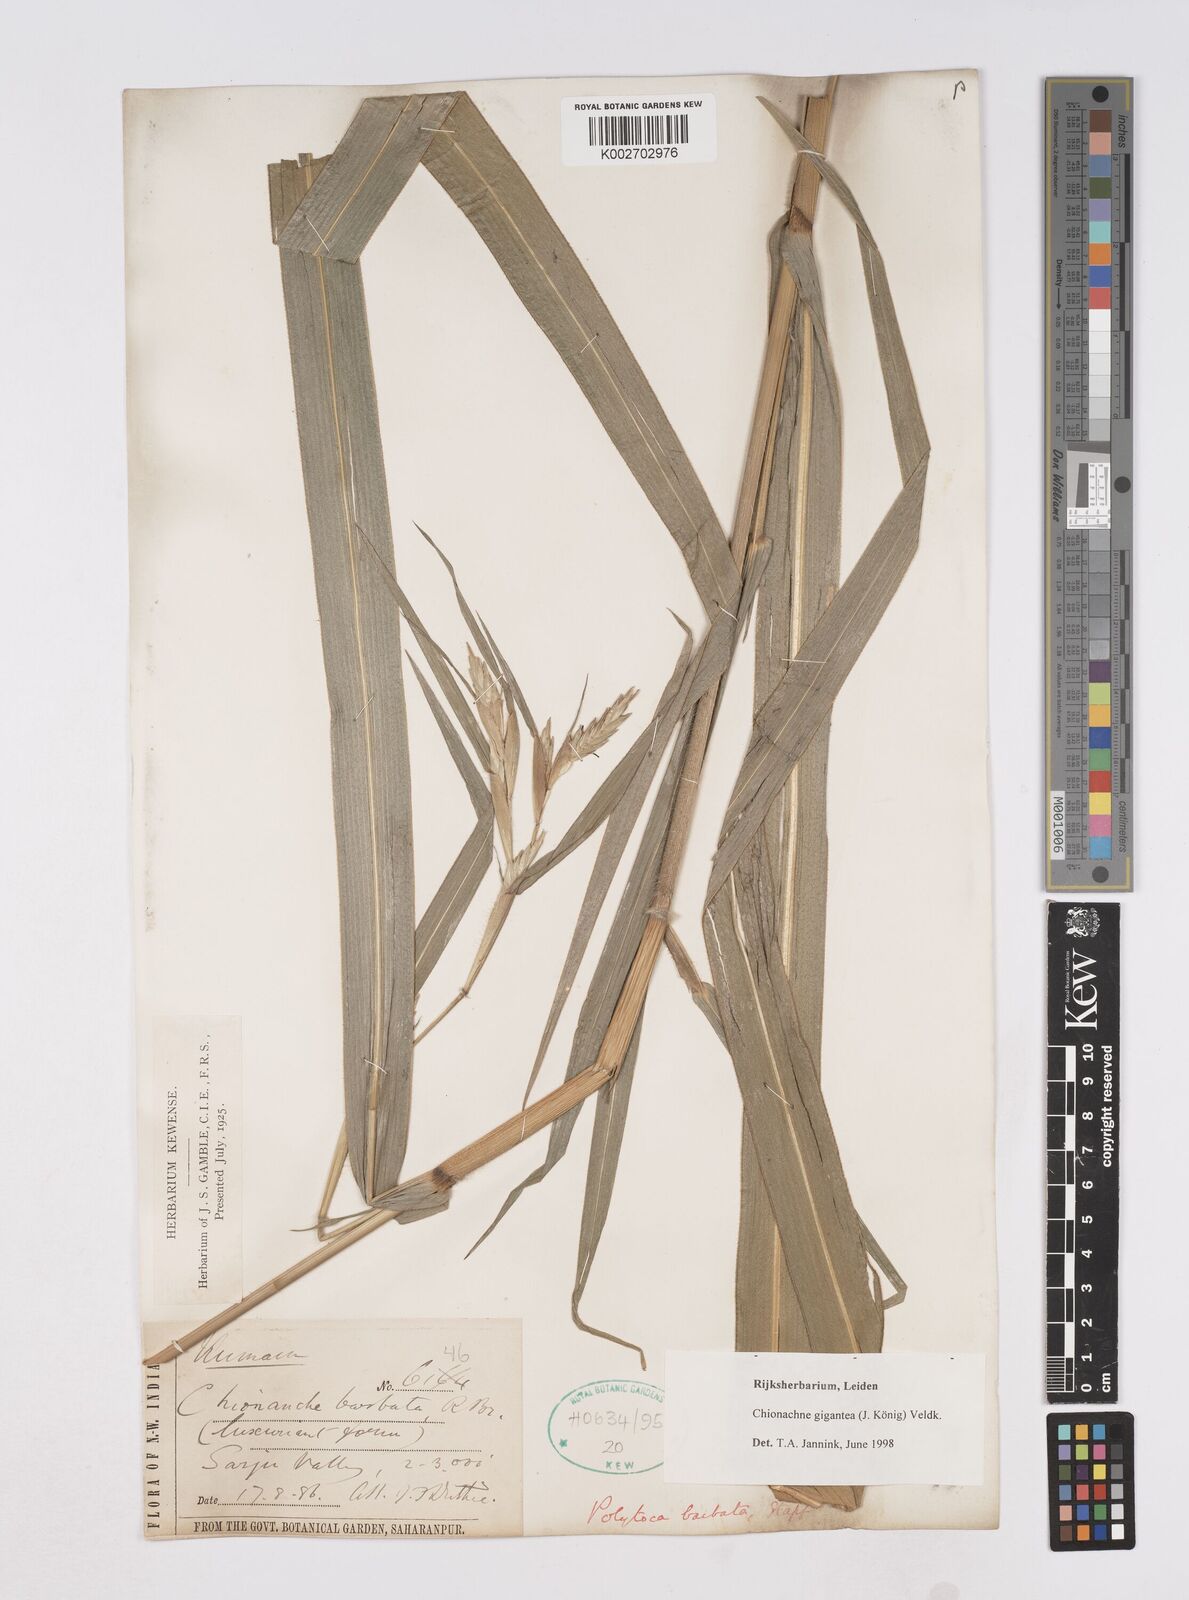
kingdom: Plantae
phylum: Tracheophyta
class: Liliopsida
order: Poales
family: Poaceae
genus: Polytoca
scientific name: Polytoca gigantea
